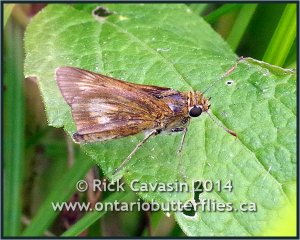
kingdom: Animalia
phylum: Arthropoda
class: Insecta
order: Lepidoptera
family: Hesperiidae
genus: Euphyes
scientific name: Euphyes conspicua
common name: Black Dash
